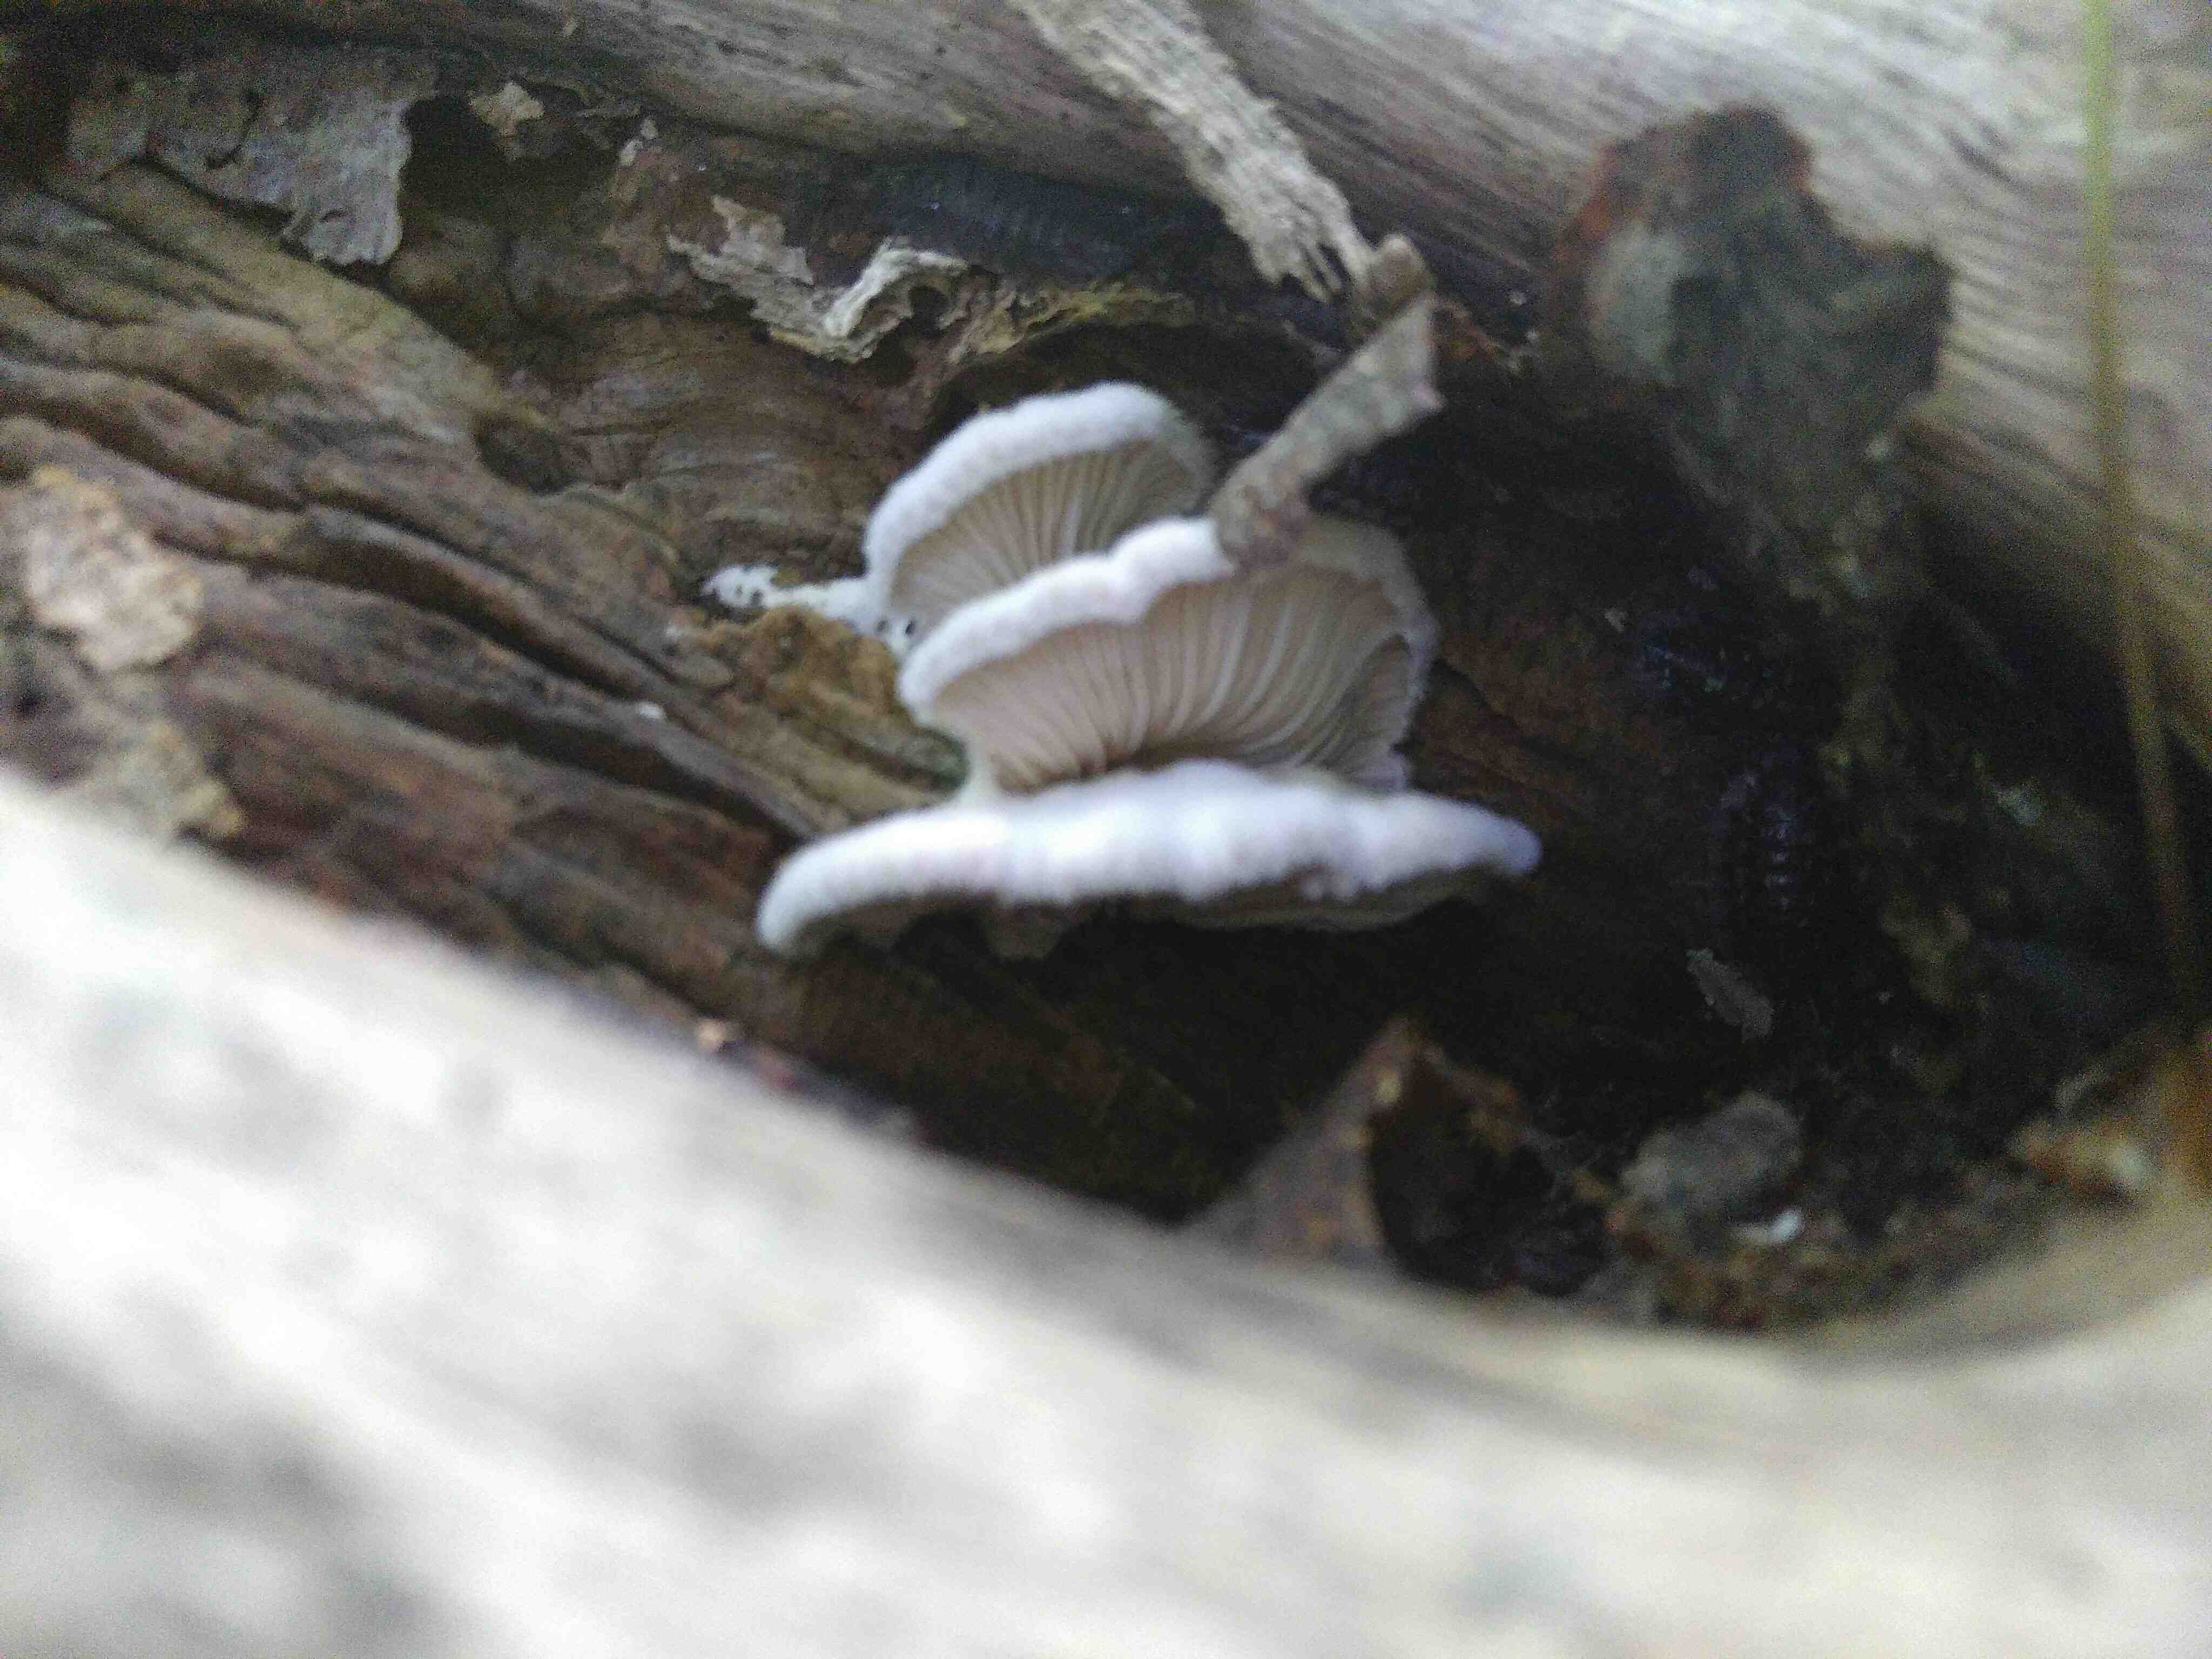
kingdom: Fungi
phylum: Basidiomycota
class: Agaricomycetes
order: Agaricales
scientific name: Agaricales
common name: champignonordenen
